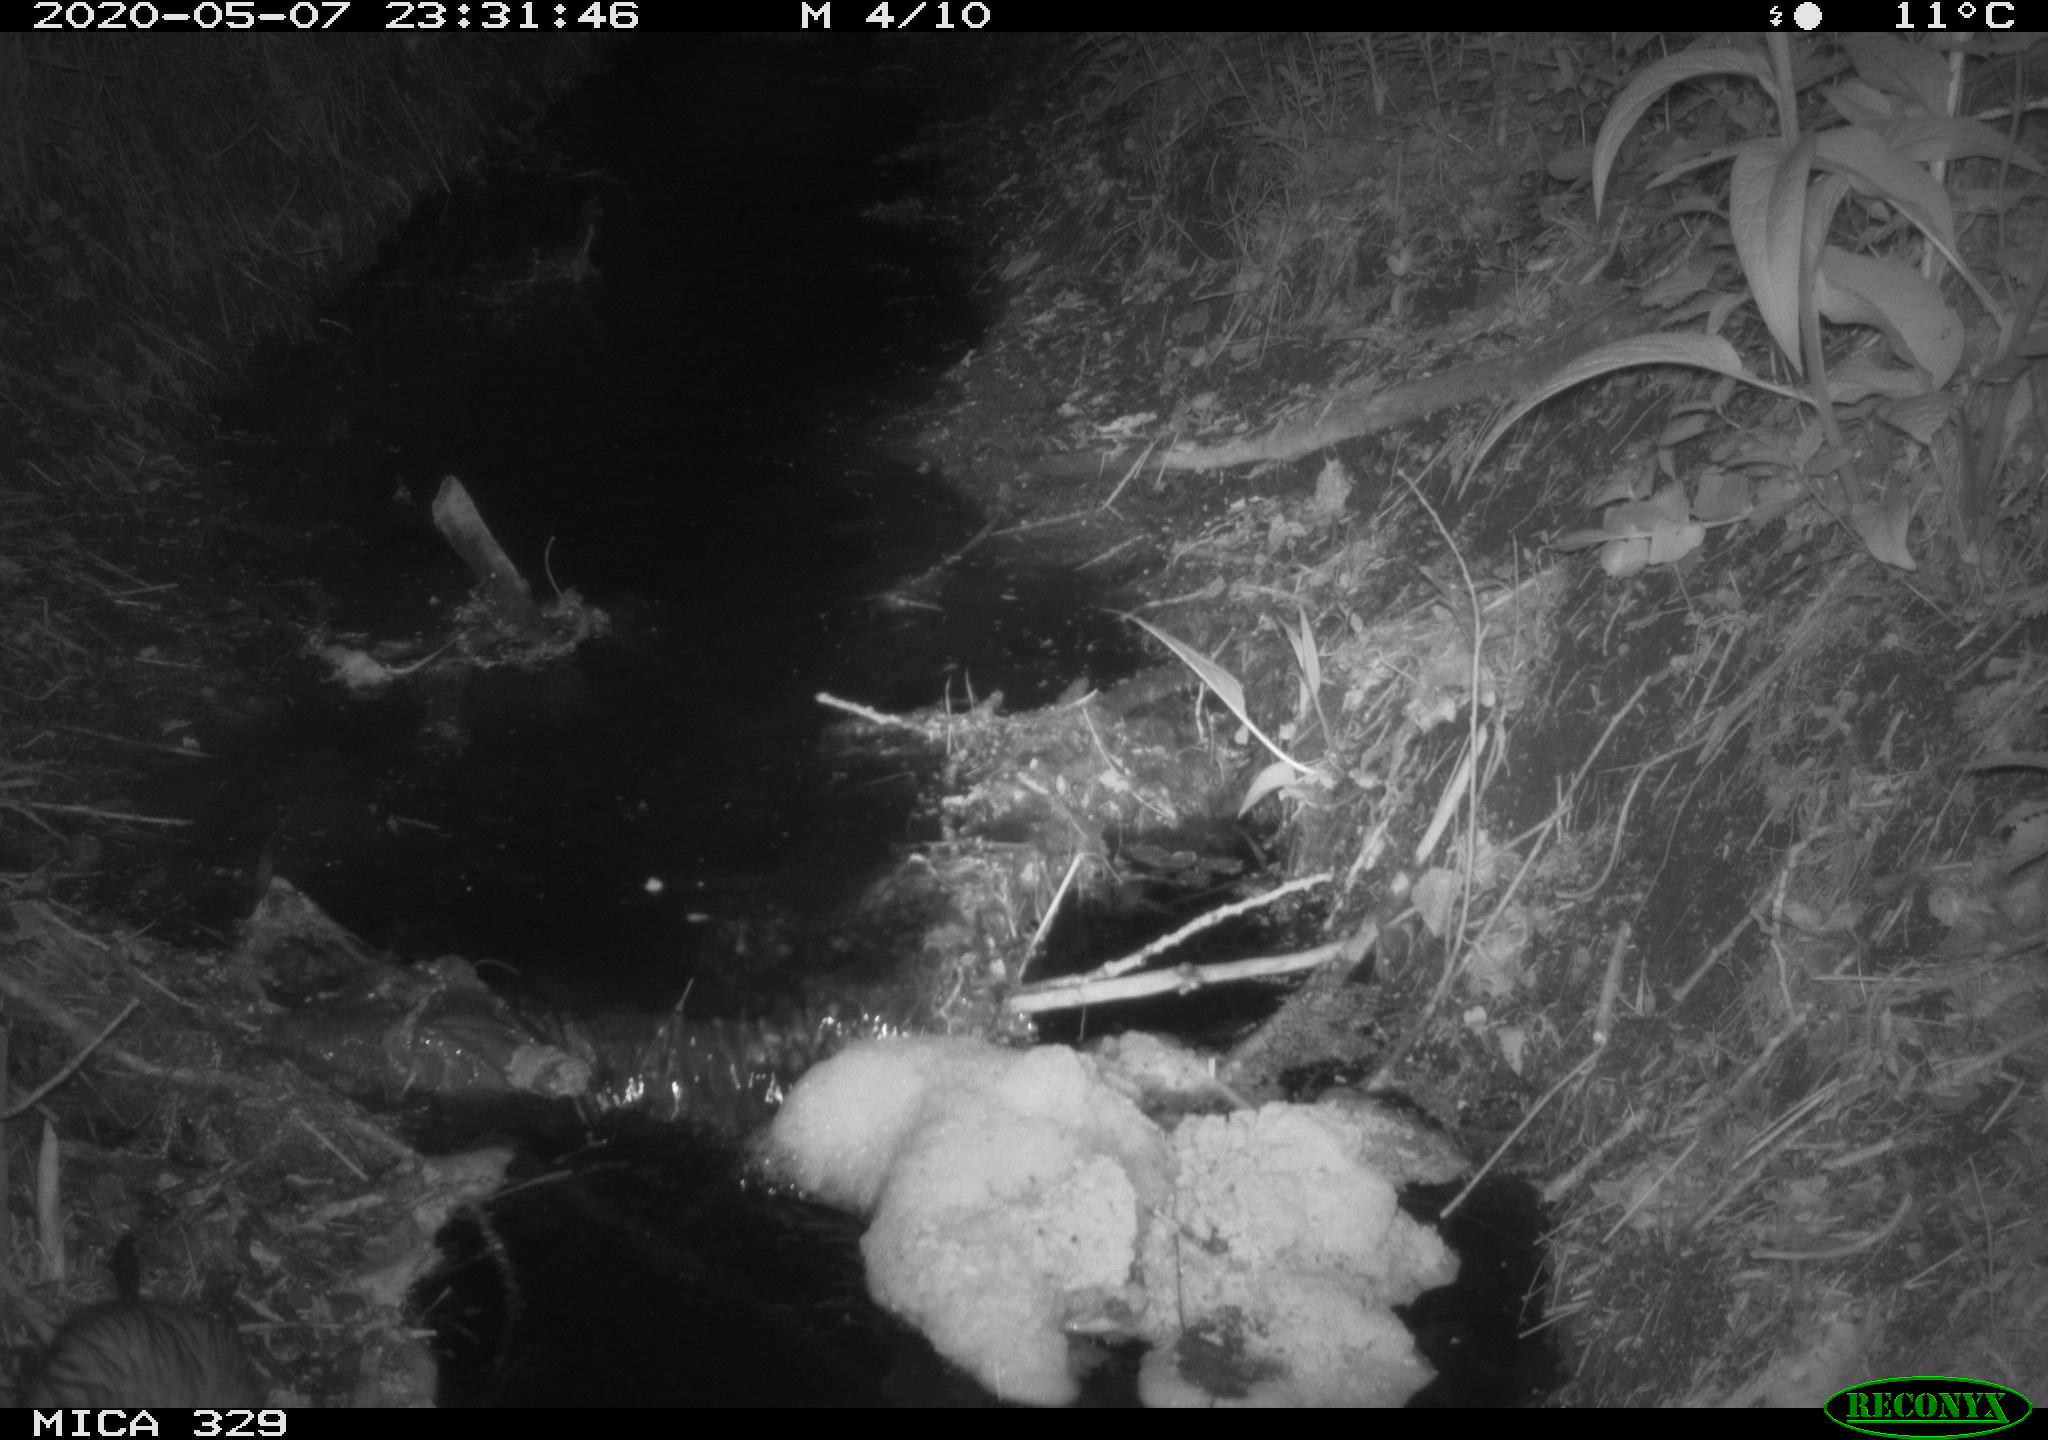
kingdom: Animalia
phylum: Chordata
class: Mammalia
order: Rodentia
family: Cricetidae
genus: Ondatra
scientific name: Ondatra zibethicus
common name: Muskrat
